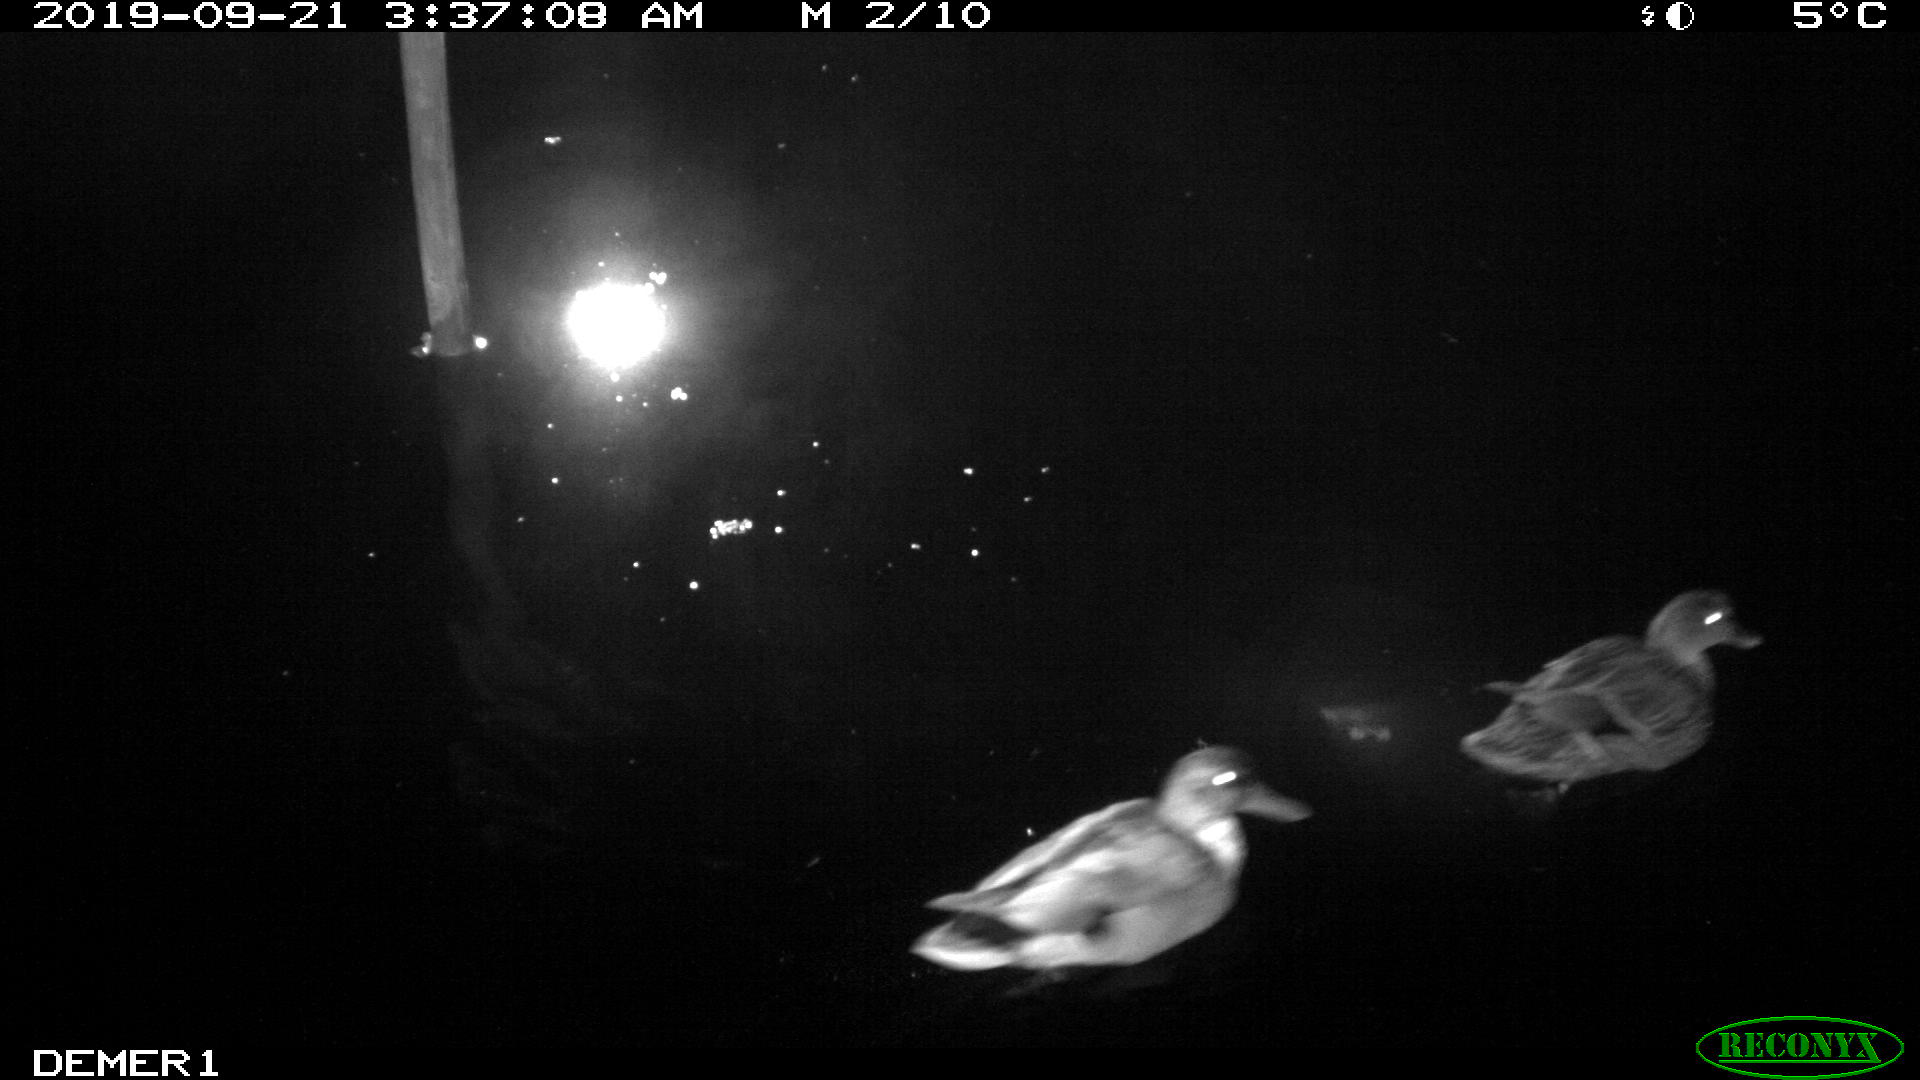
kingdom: Animalia
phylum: Chordata
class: Aves
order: Anseriformes
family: Anatidae
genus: Anas
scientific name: Anas platyrhynchos
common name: Mallard
